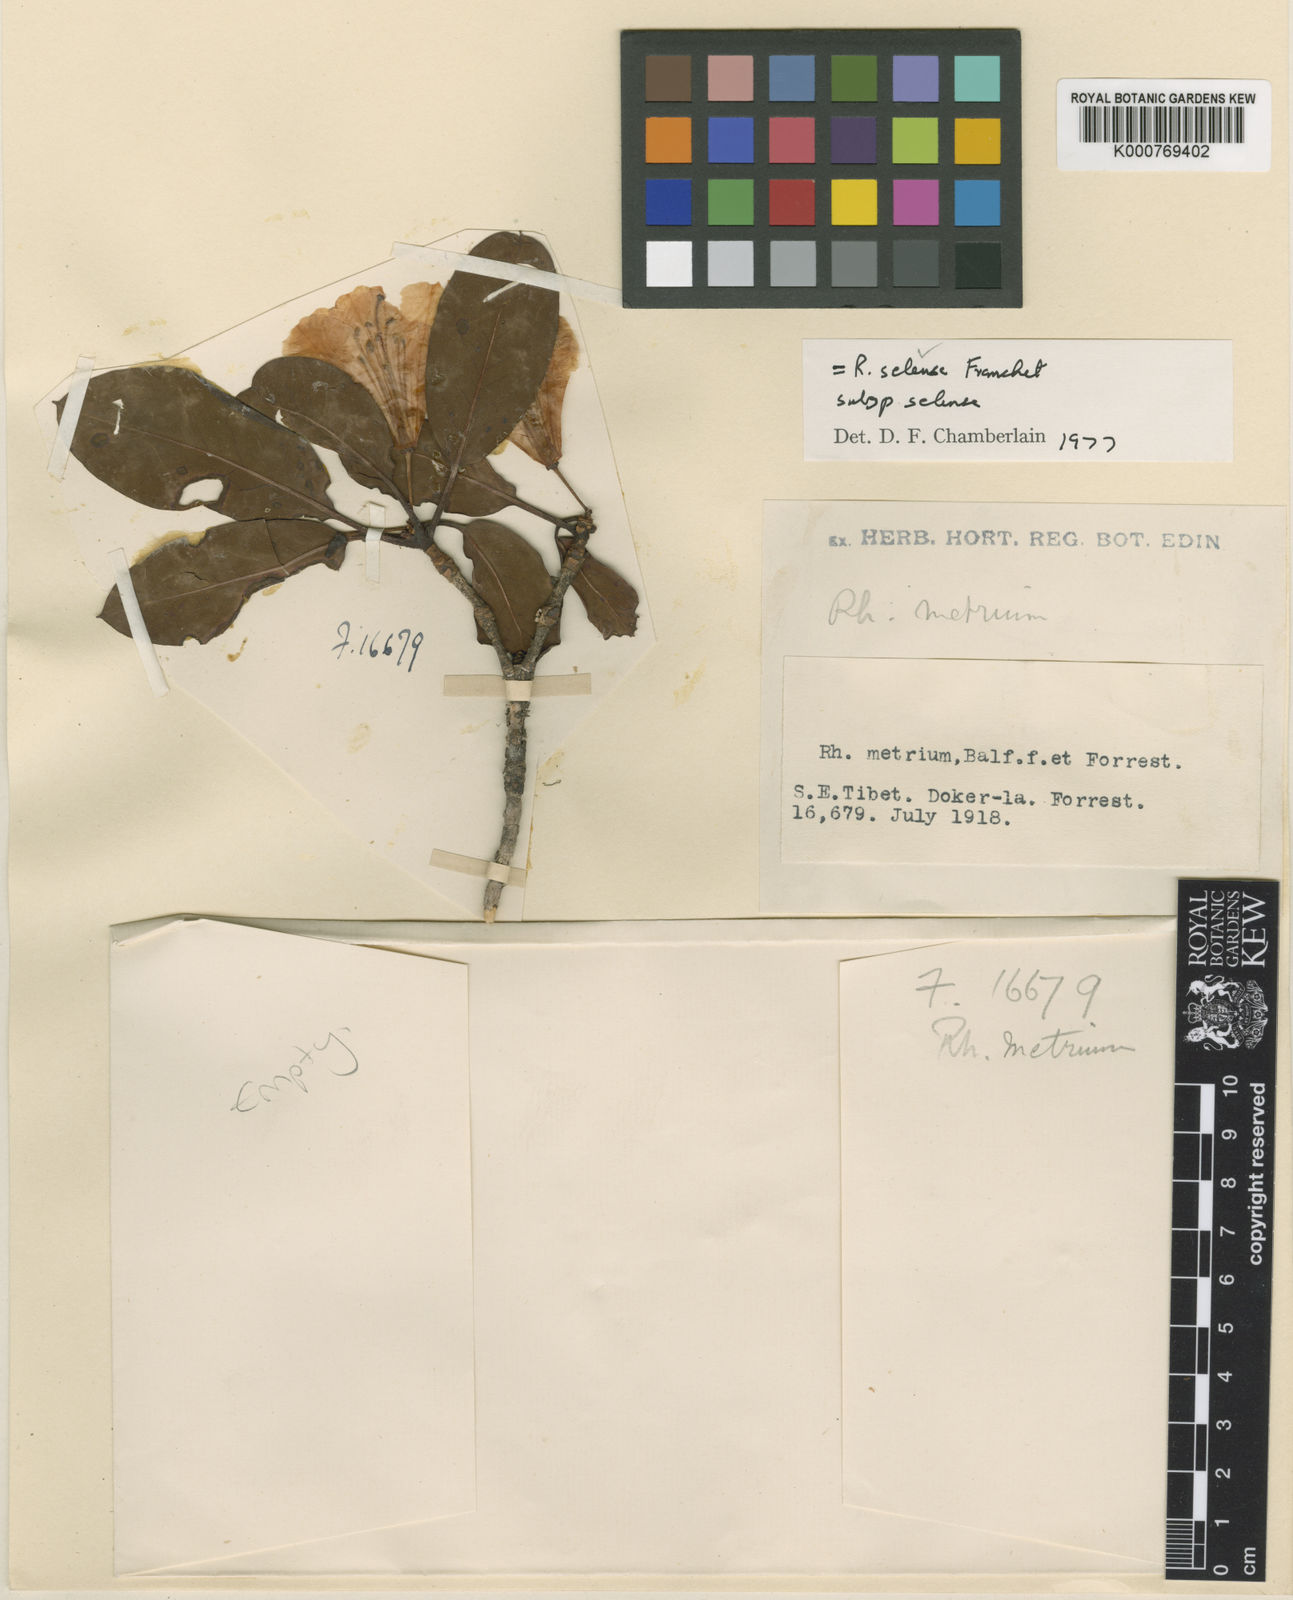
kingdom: Plantae
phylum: Tracheophyta
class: Magnoliopsida
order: Ericales
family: Ericaceae
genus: Rhododendron
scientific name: Rhododendron selense
